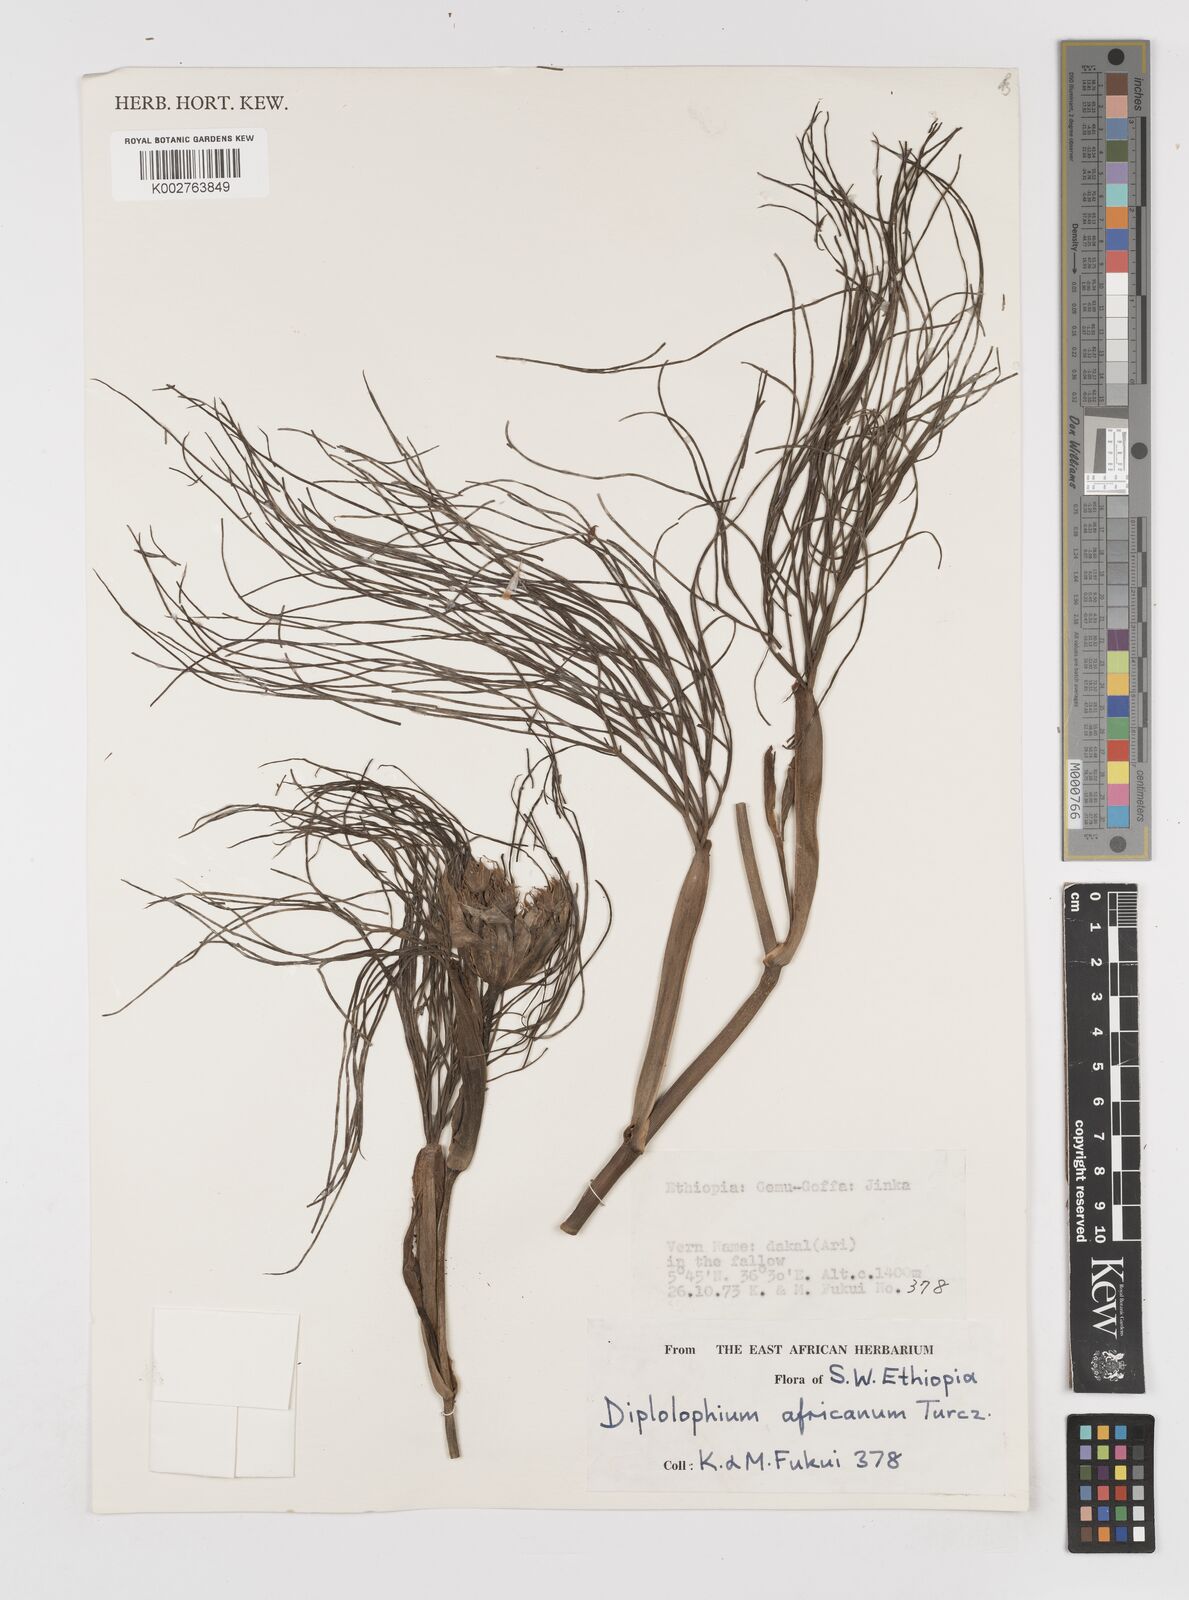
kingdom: Plantae
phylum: Tracheophyta
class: Magnoliopsida
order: Apiales
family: Apiaceae
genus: Diplolophium
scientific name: Diplolophium africanum
